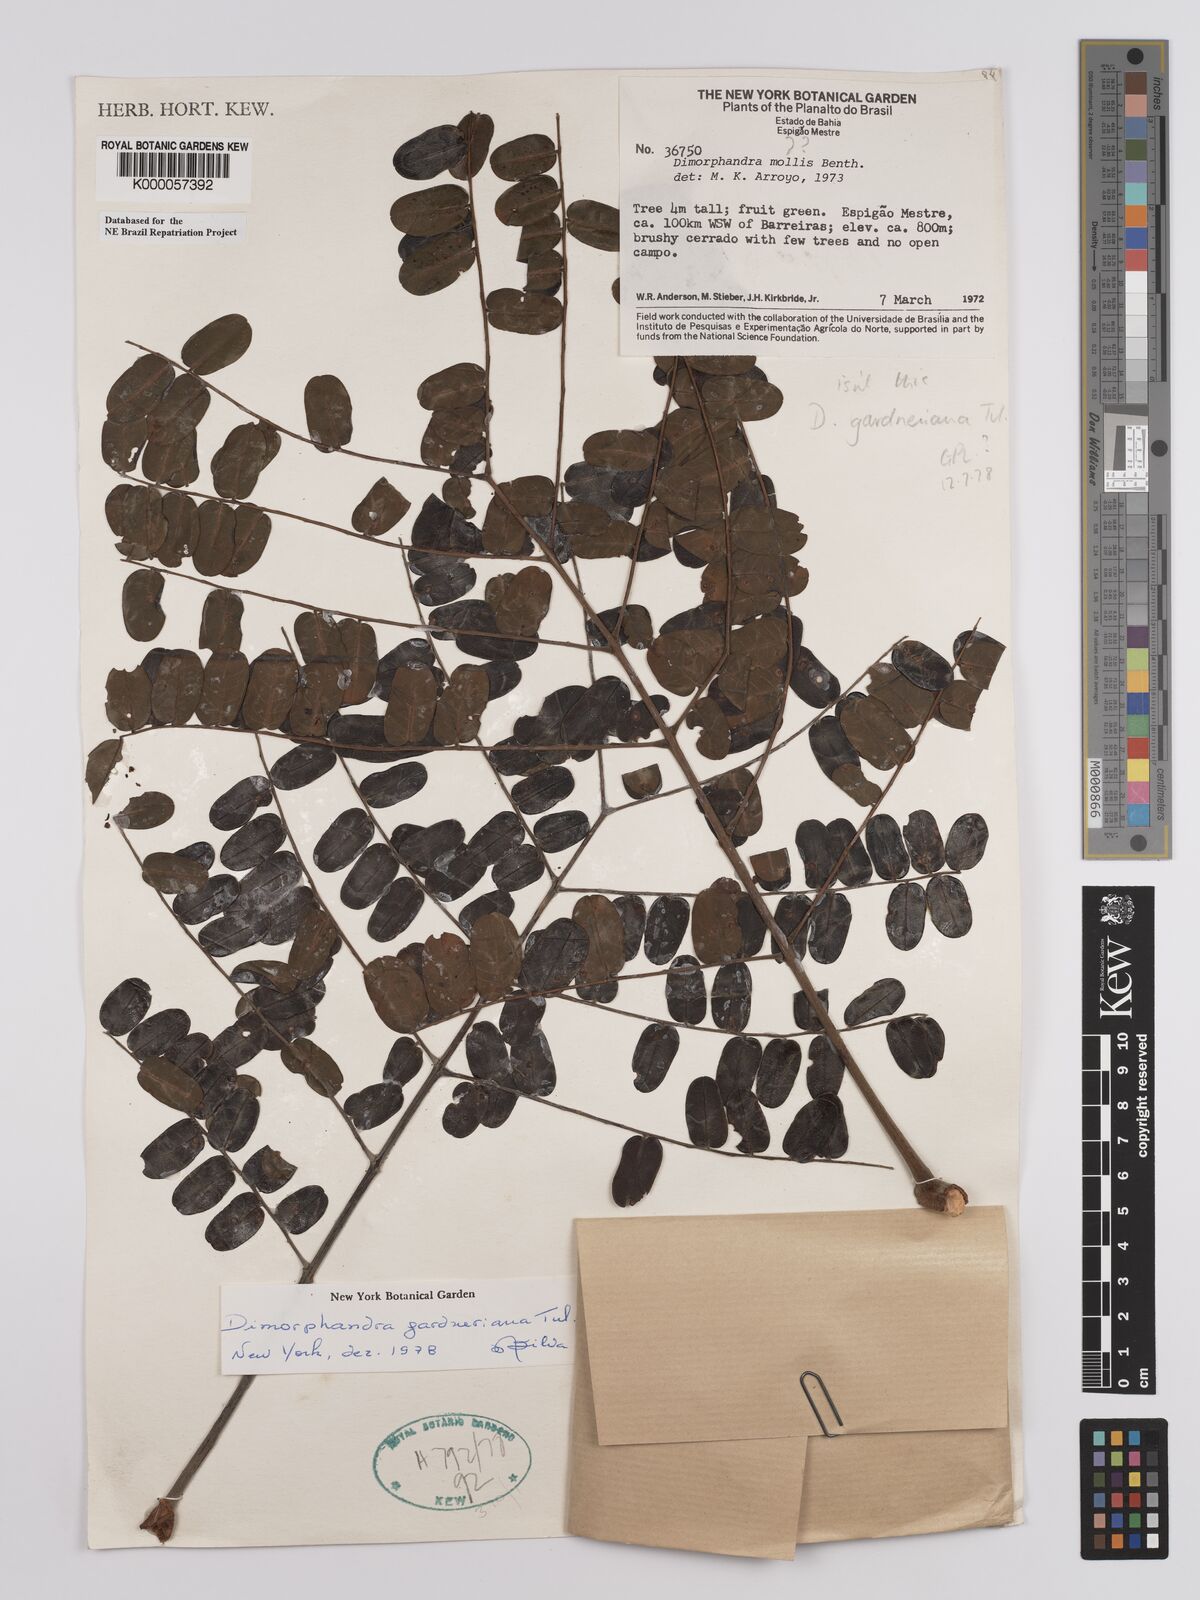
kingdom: Plantae
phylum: Tracheophyta
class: Magnoliopsida
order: Fabales
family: Fabaceae
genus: Dimorphandra
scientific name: Dimorphandra gardneriana
